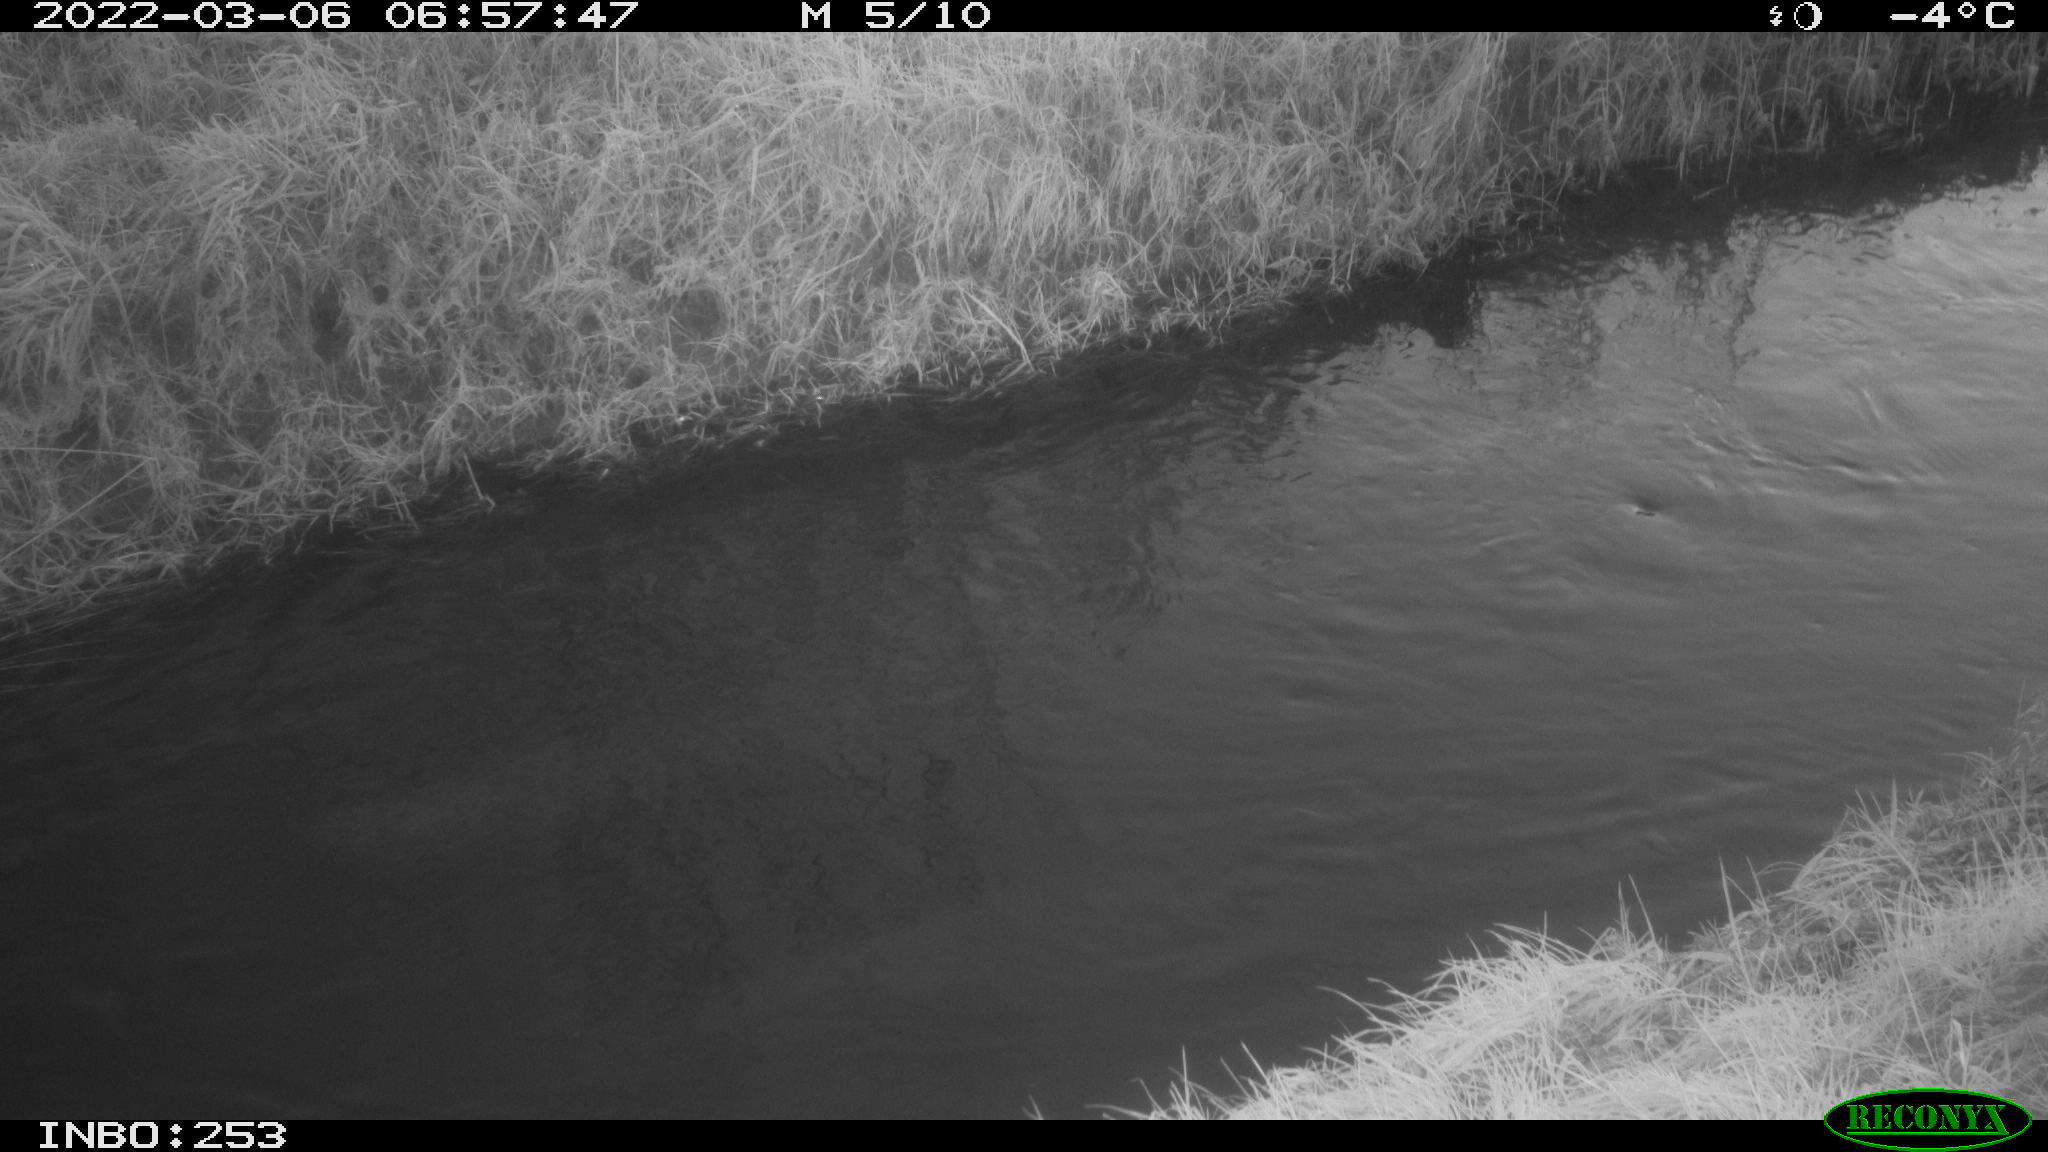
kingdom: Animalia
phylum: Chordata
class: Aves
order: Anseriformes
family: Anatidae
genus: Anas
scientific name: Anas platyrhynchos
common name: Mallard
